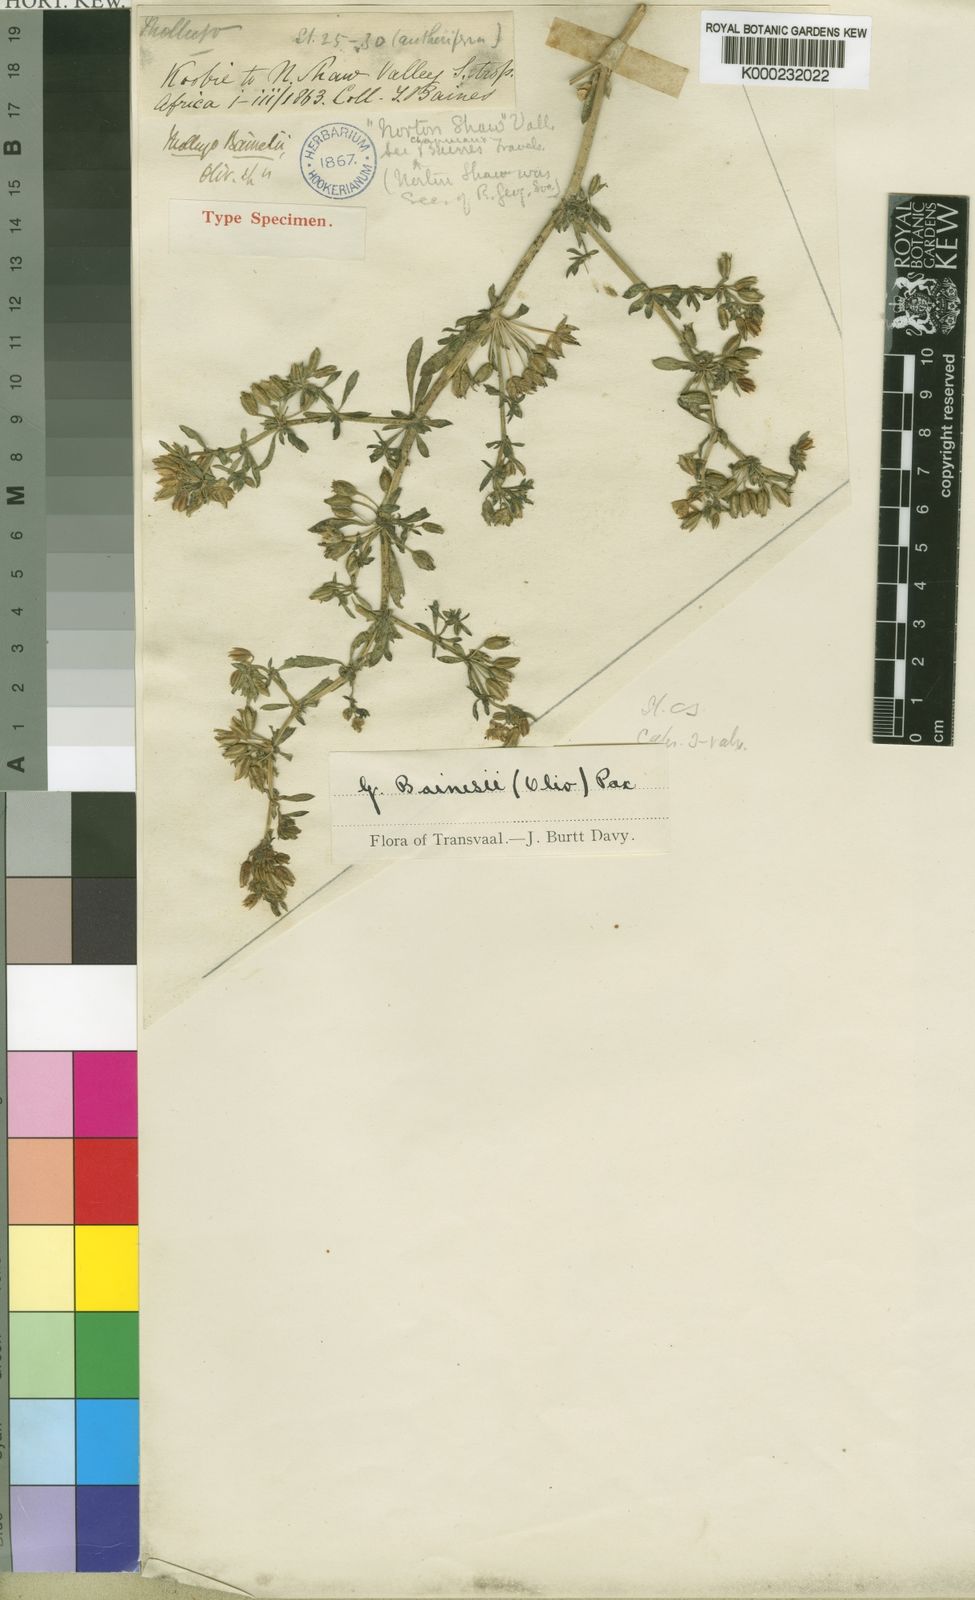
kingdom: Plantae
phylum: Tracheophyta
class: Magnoliopsida
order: Caryophyllales
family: Molluginaceae
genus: Glinus
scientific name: Glinus bainesii
